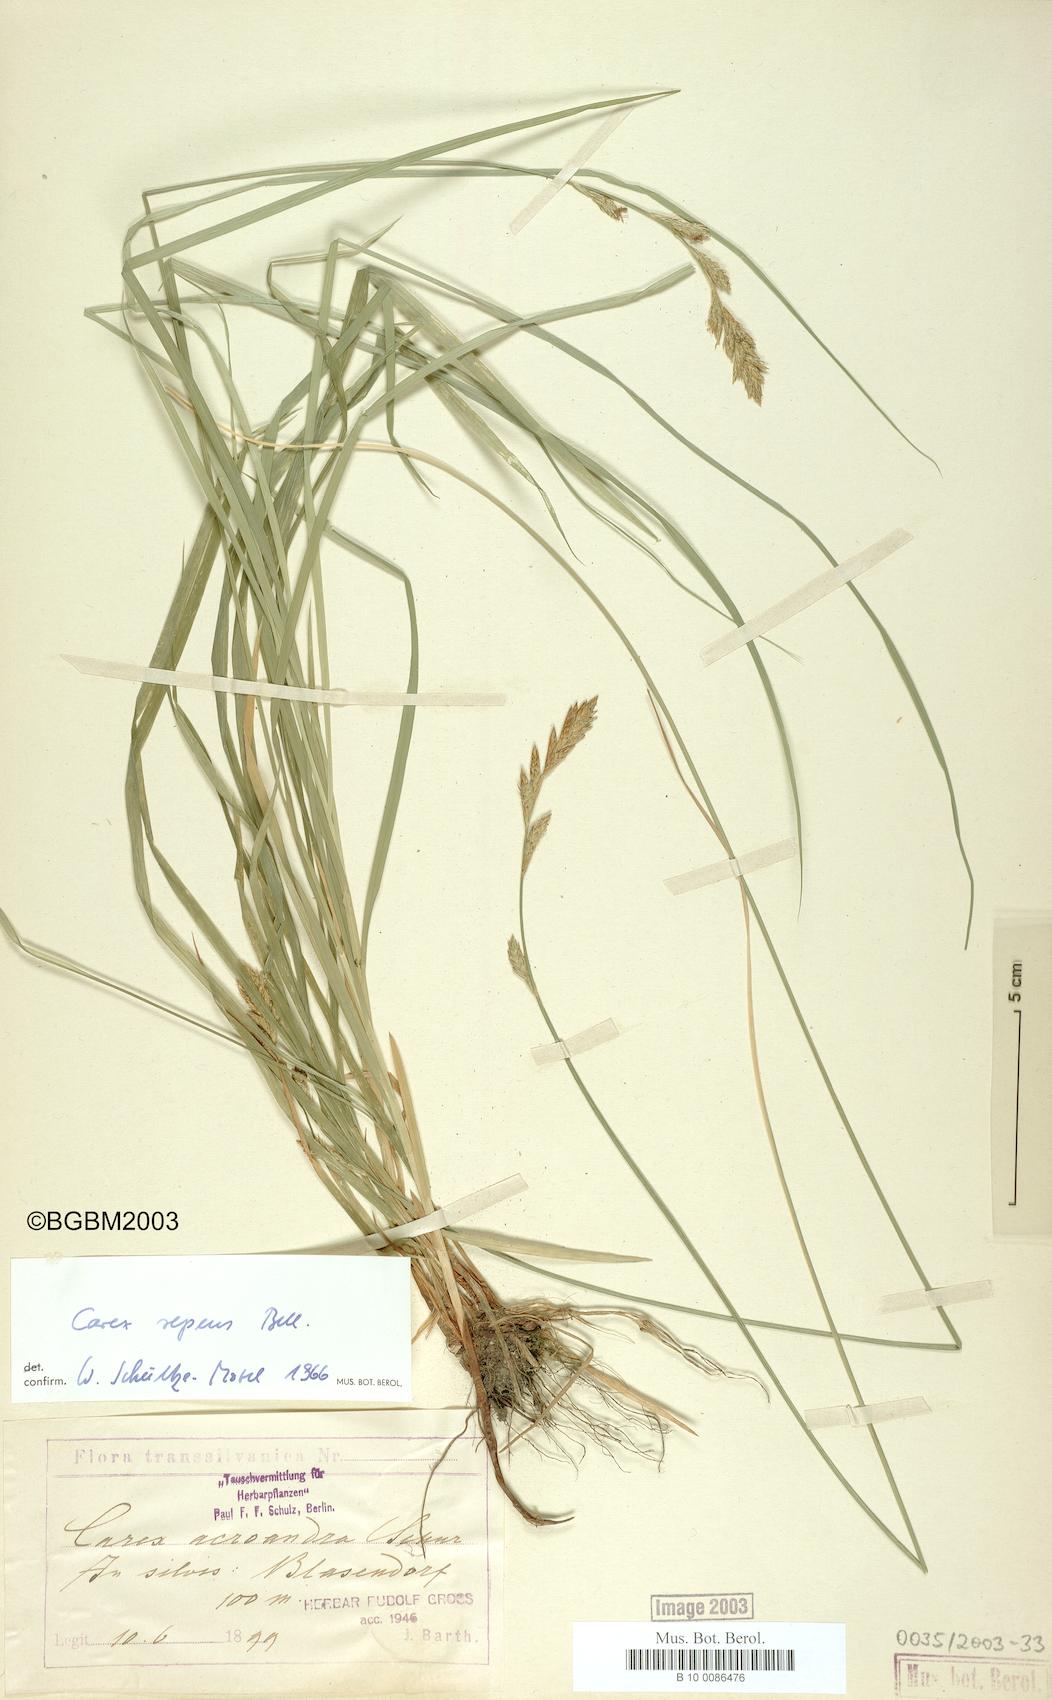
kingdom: Plantae
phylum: Tracheophyta
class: Liliopsida
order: Poales
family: Cyperaceae
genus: Carex
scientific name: Carex repens
